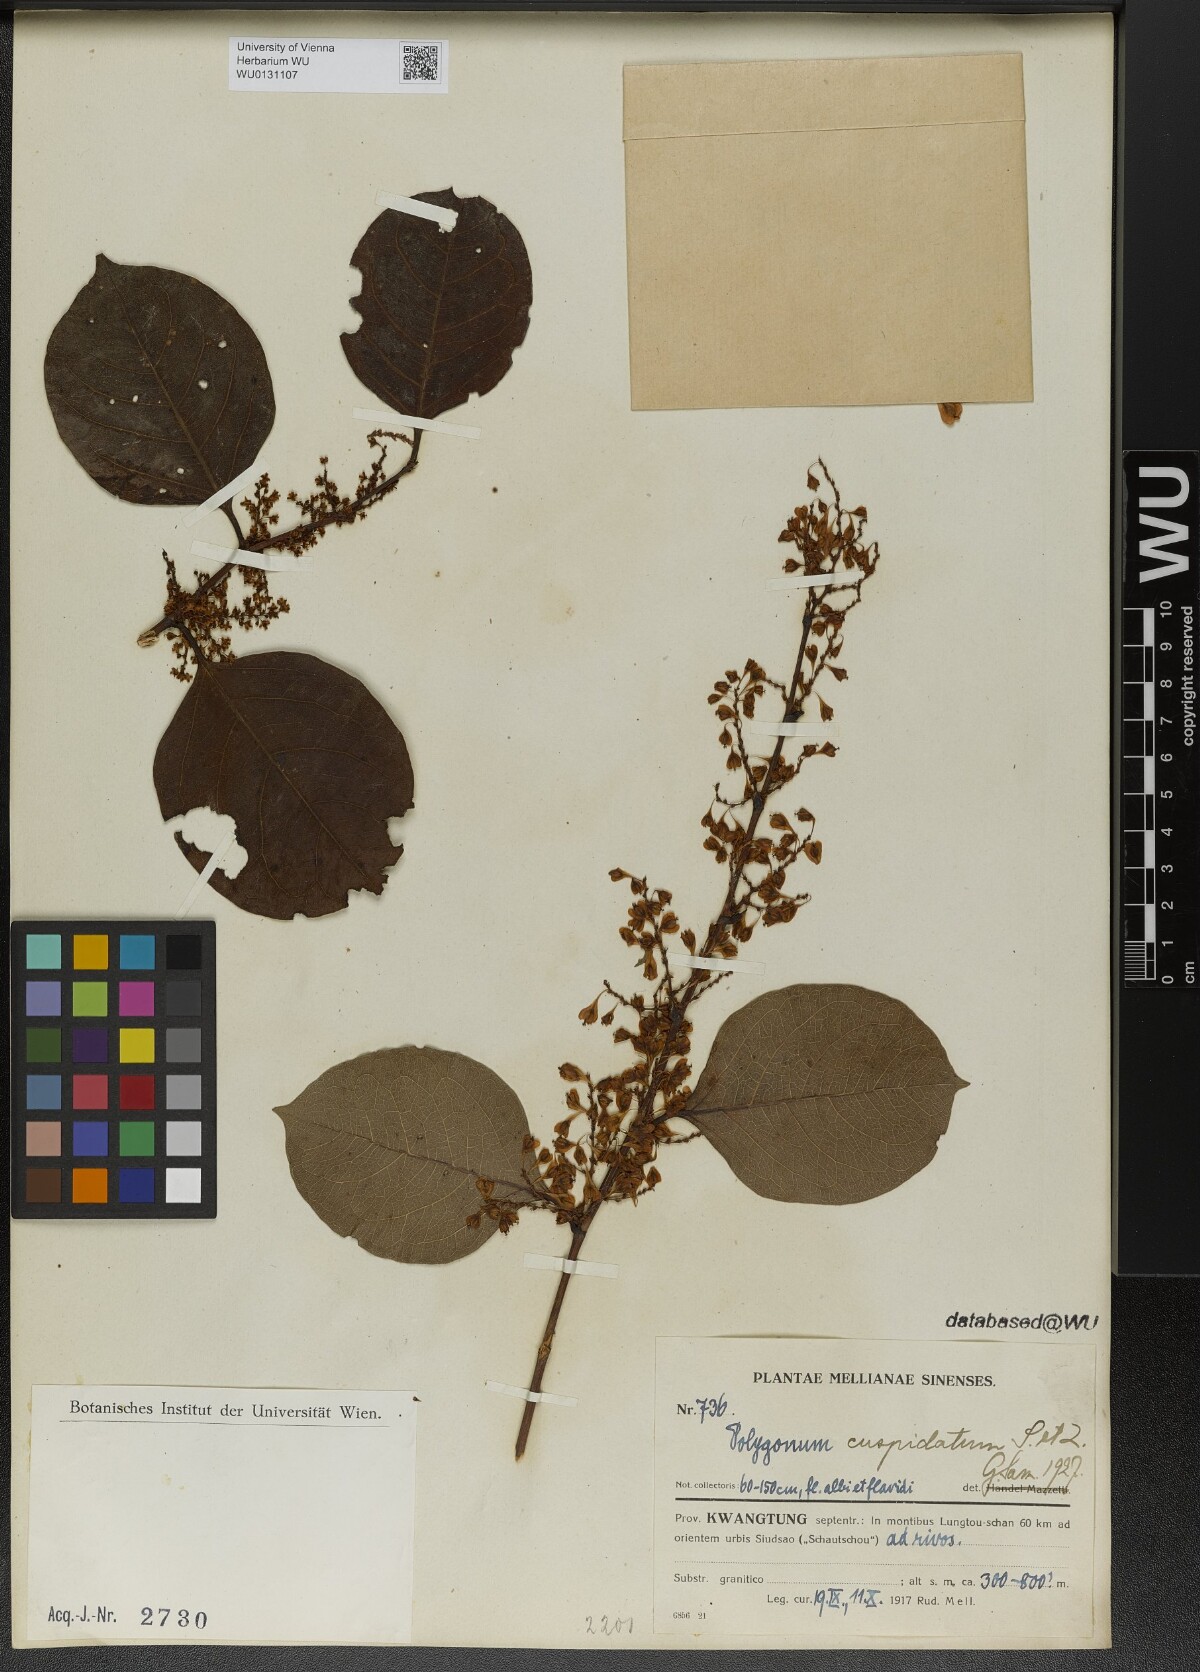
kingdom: Plantae
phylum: Tracheophyta
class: Magnoliopsida
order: Caryophyllales
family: Polygonaceae
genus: Reynoutria
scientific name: Reynoutria japonica
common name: Japanese knotweed
